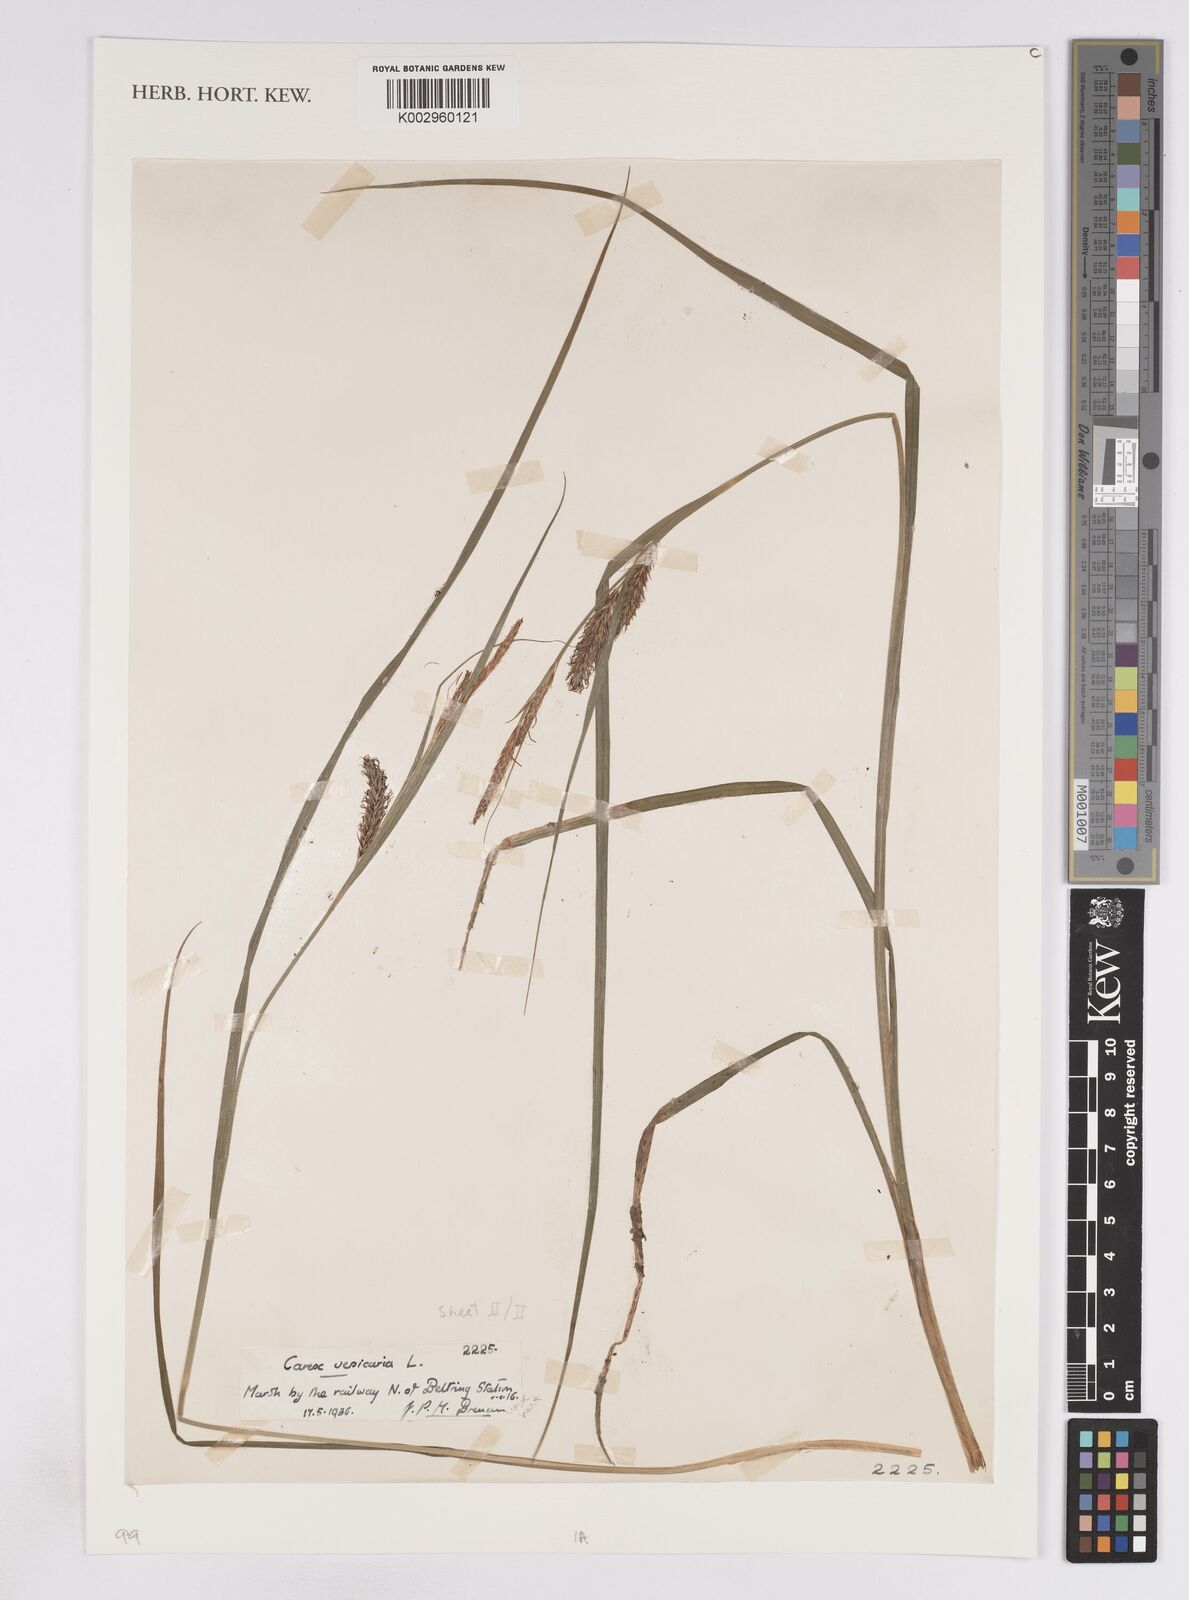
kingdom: Plantae
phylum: Tracheophyta
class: Liliopsida
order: Poales
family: Cyperaceae
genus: Carex
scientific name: Carex vesicaria
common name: Bladder-sedge
